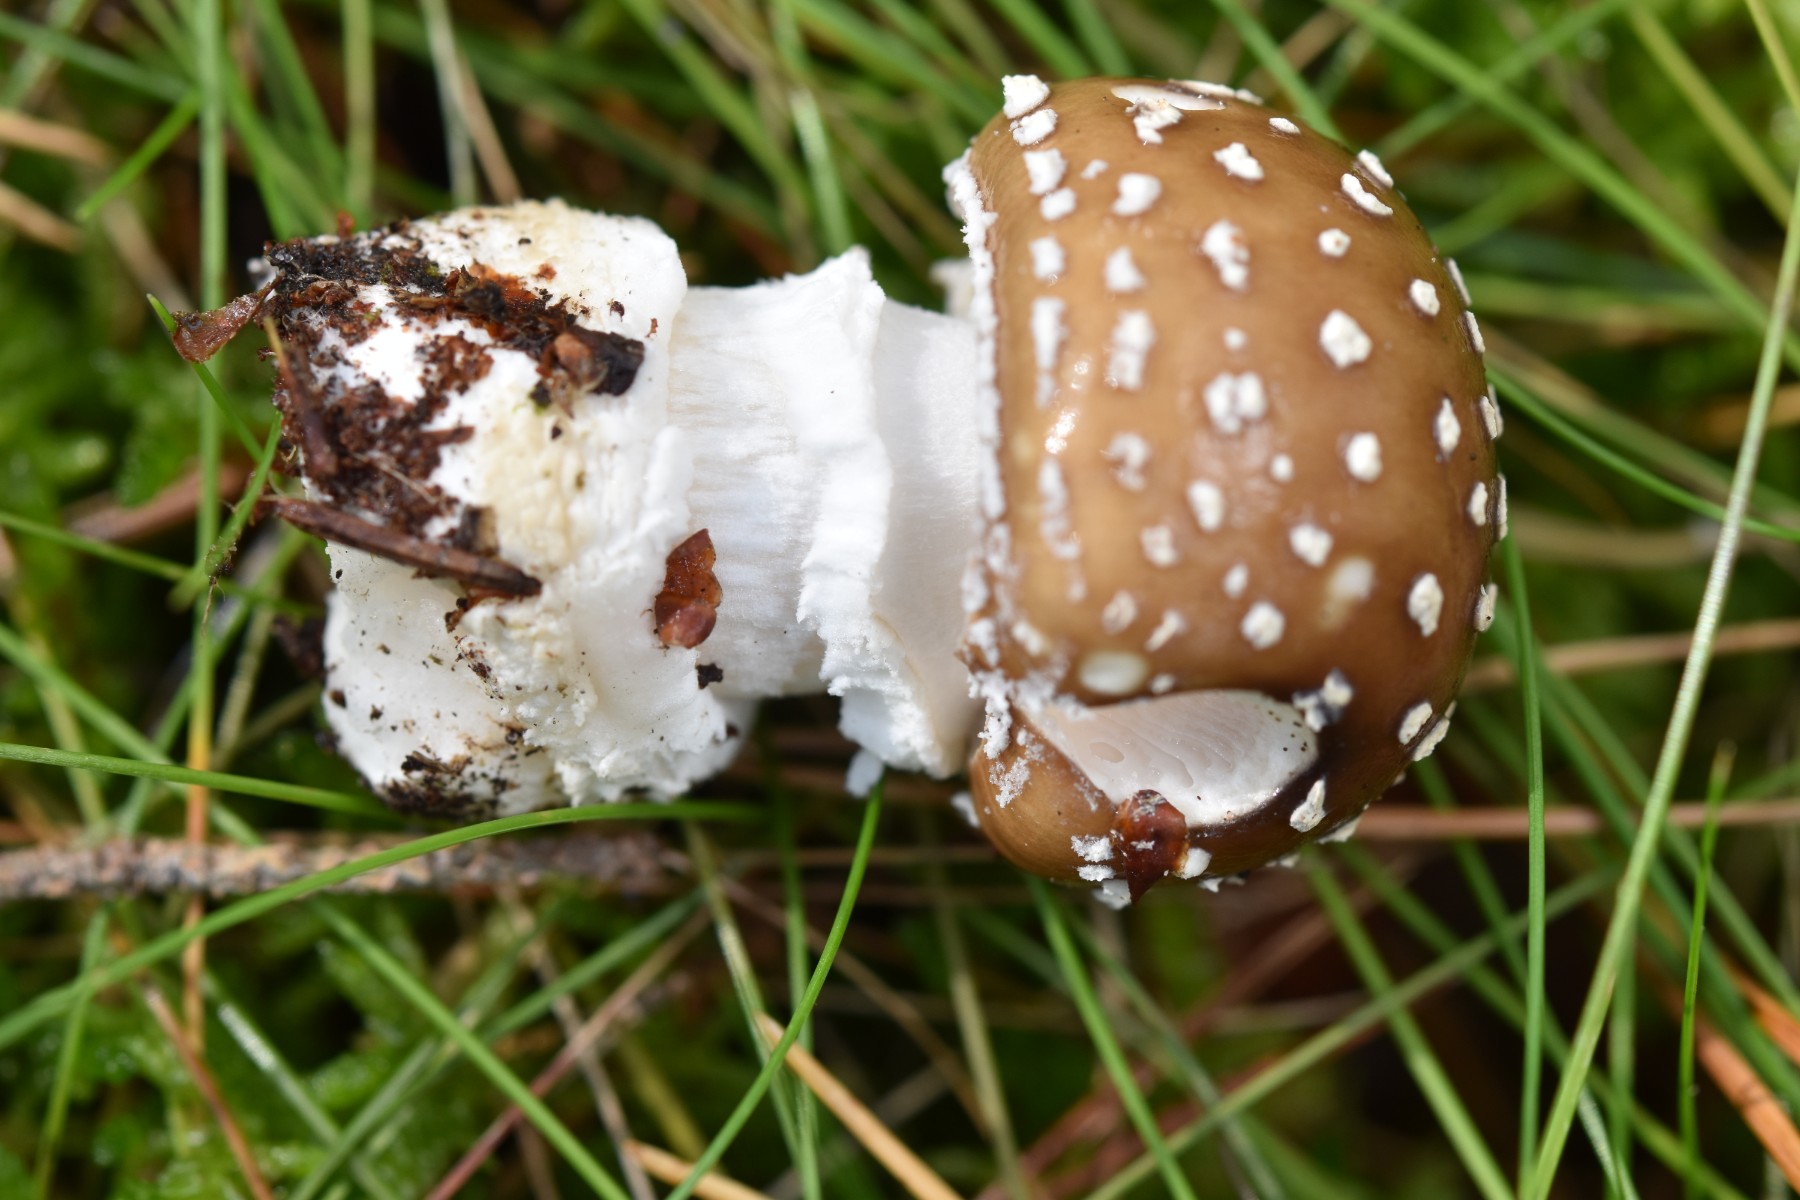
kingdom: Fungi
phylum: Basidiomycota
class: Agaricomycetes
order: Agaricales
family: Amanitaceae
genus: Amanita
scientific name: Amanita pantherina
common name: panter-fluesvamp
